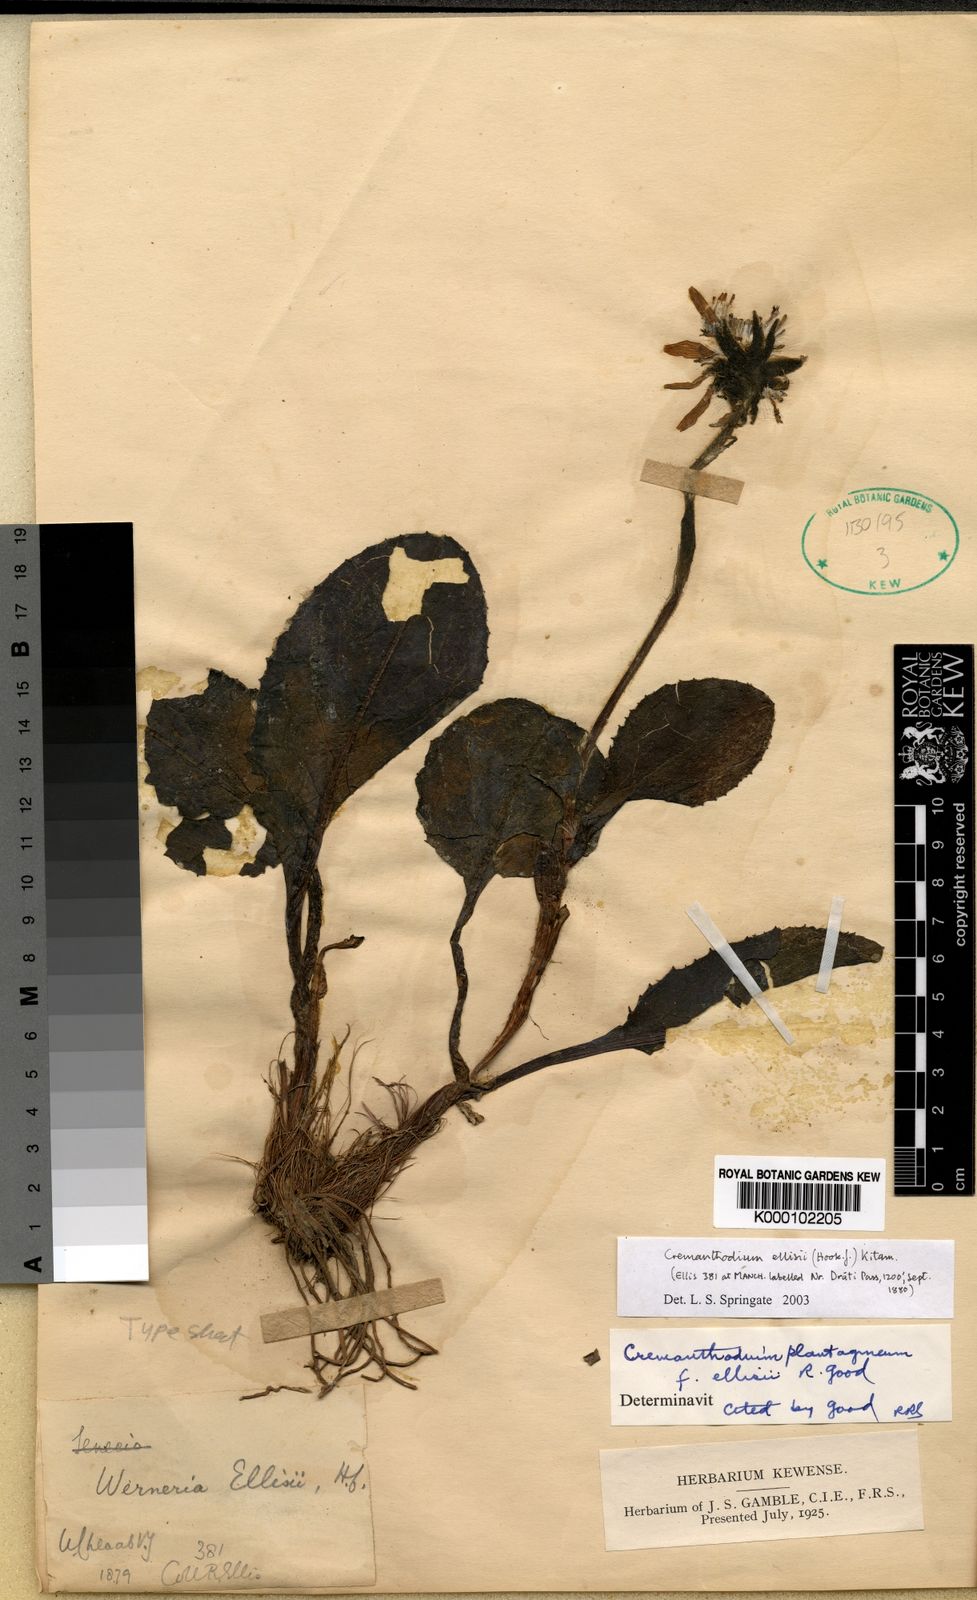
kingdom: Plantae
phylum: Tracheophyta
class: Magnoliopsida
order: Asterales
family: Asteraceae
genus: Cremanthodium
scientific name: Cremanthodium ellisii
